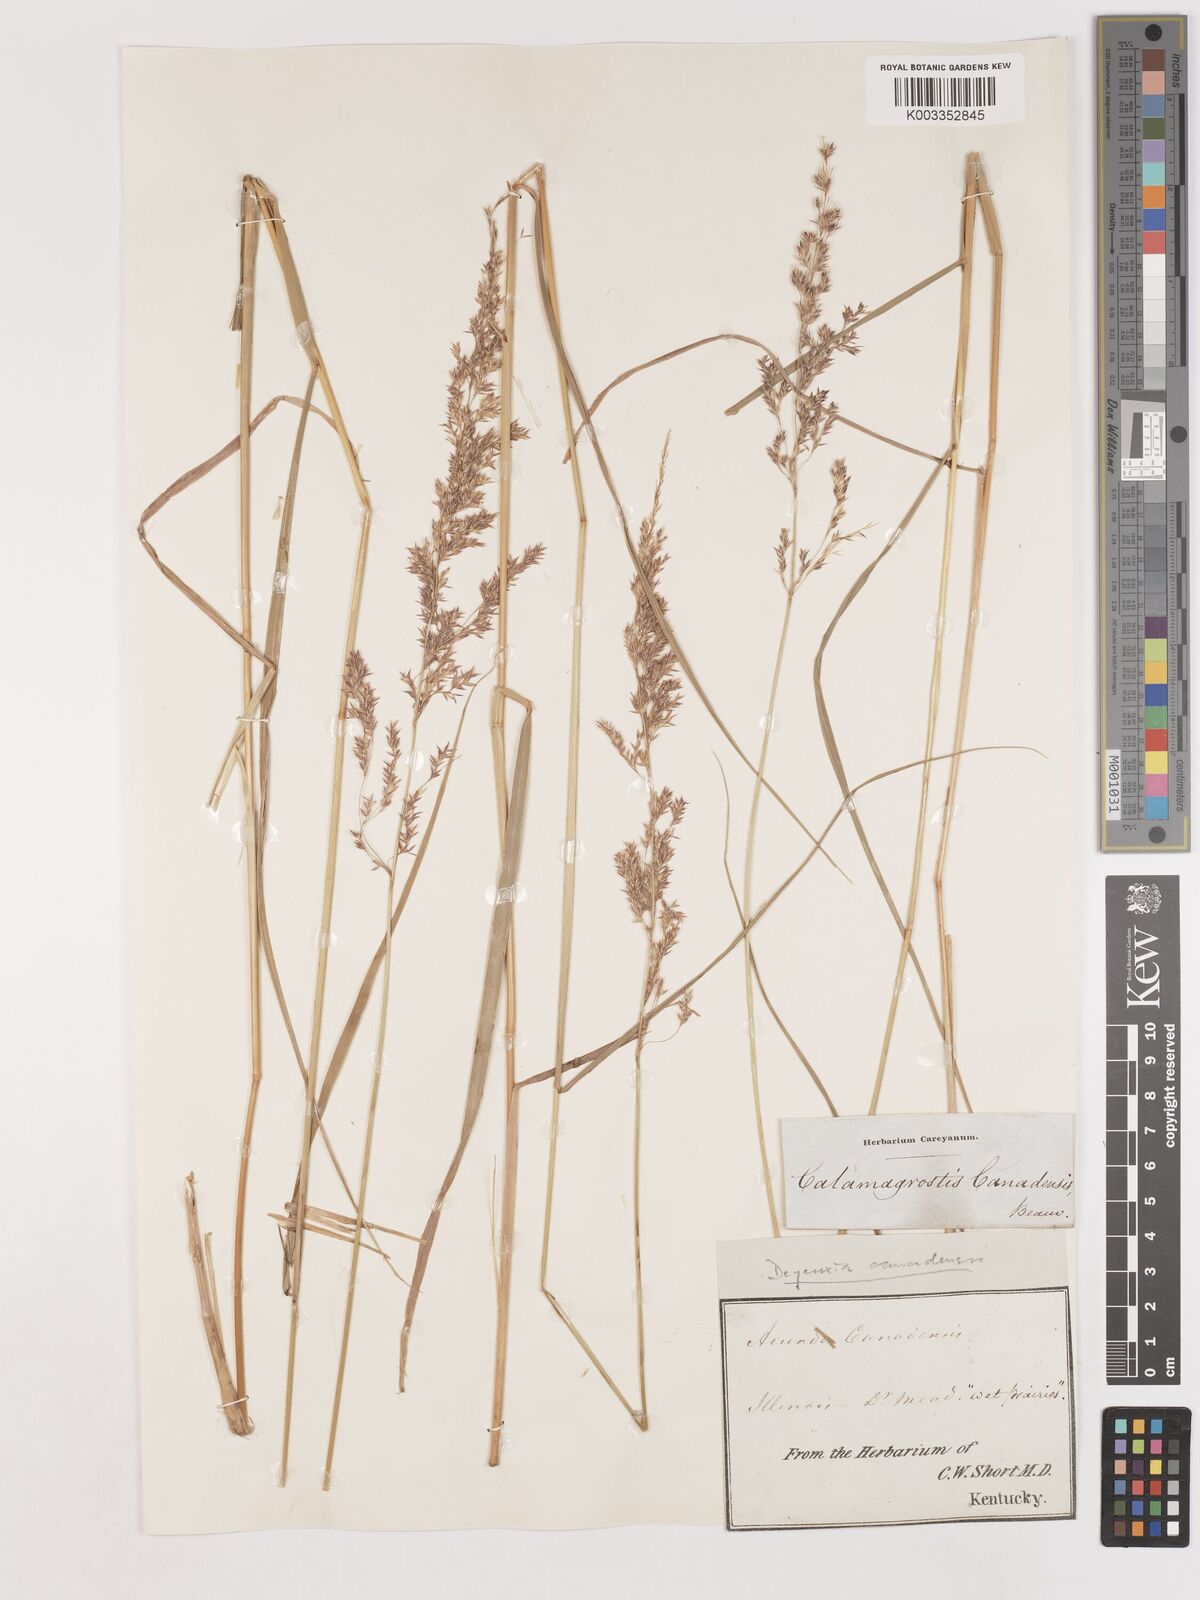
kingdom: Plantae
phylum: Tracheophyta
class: Liliopsida
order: Poales
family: Poaceae
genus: Calamagrostis
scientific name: Calamagrostis canadensis
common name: Canada bluejoint
